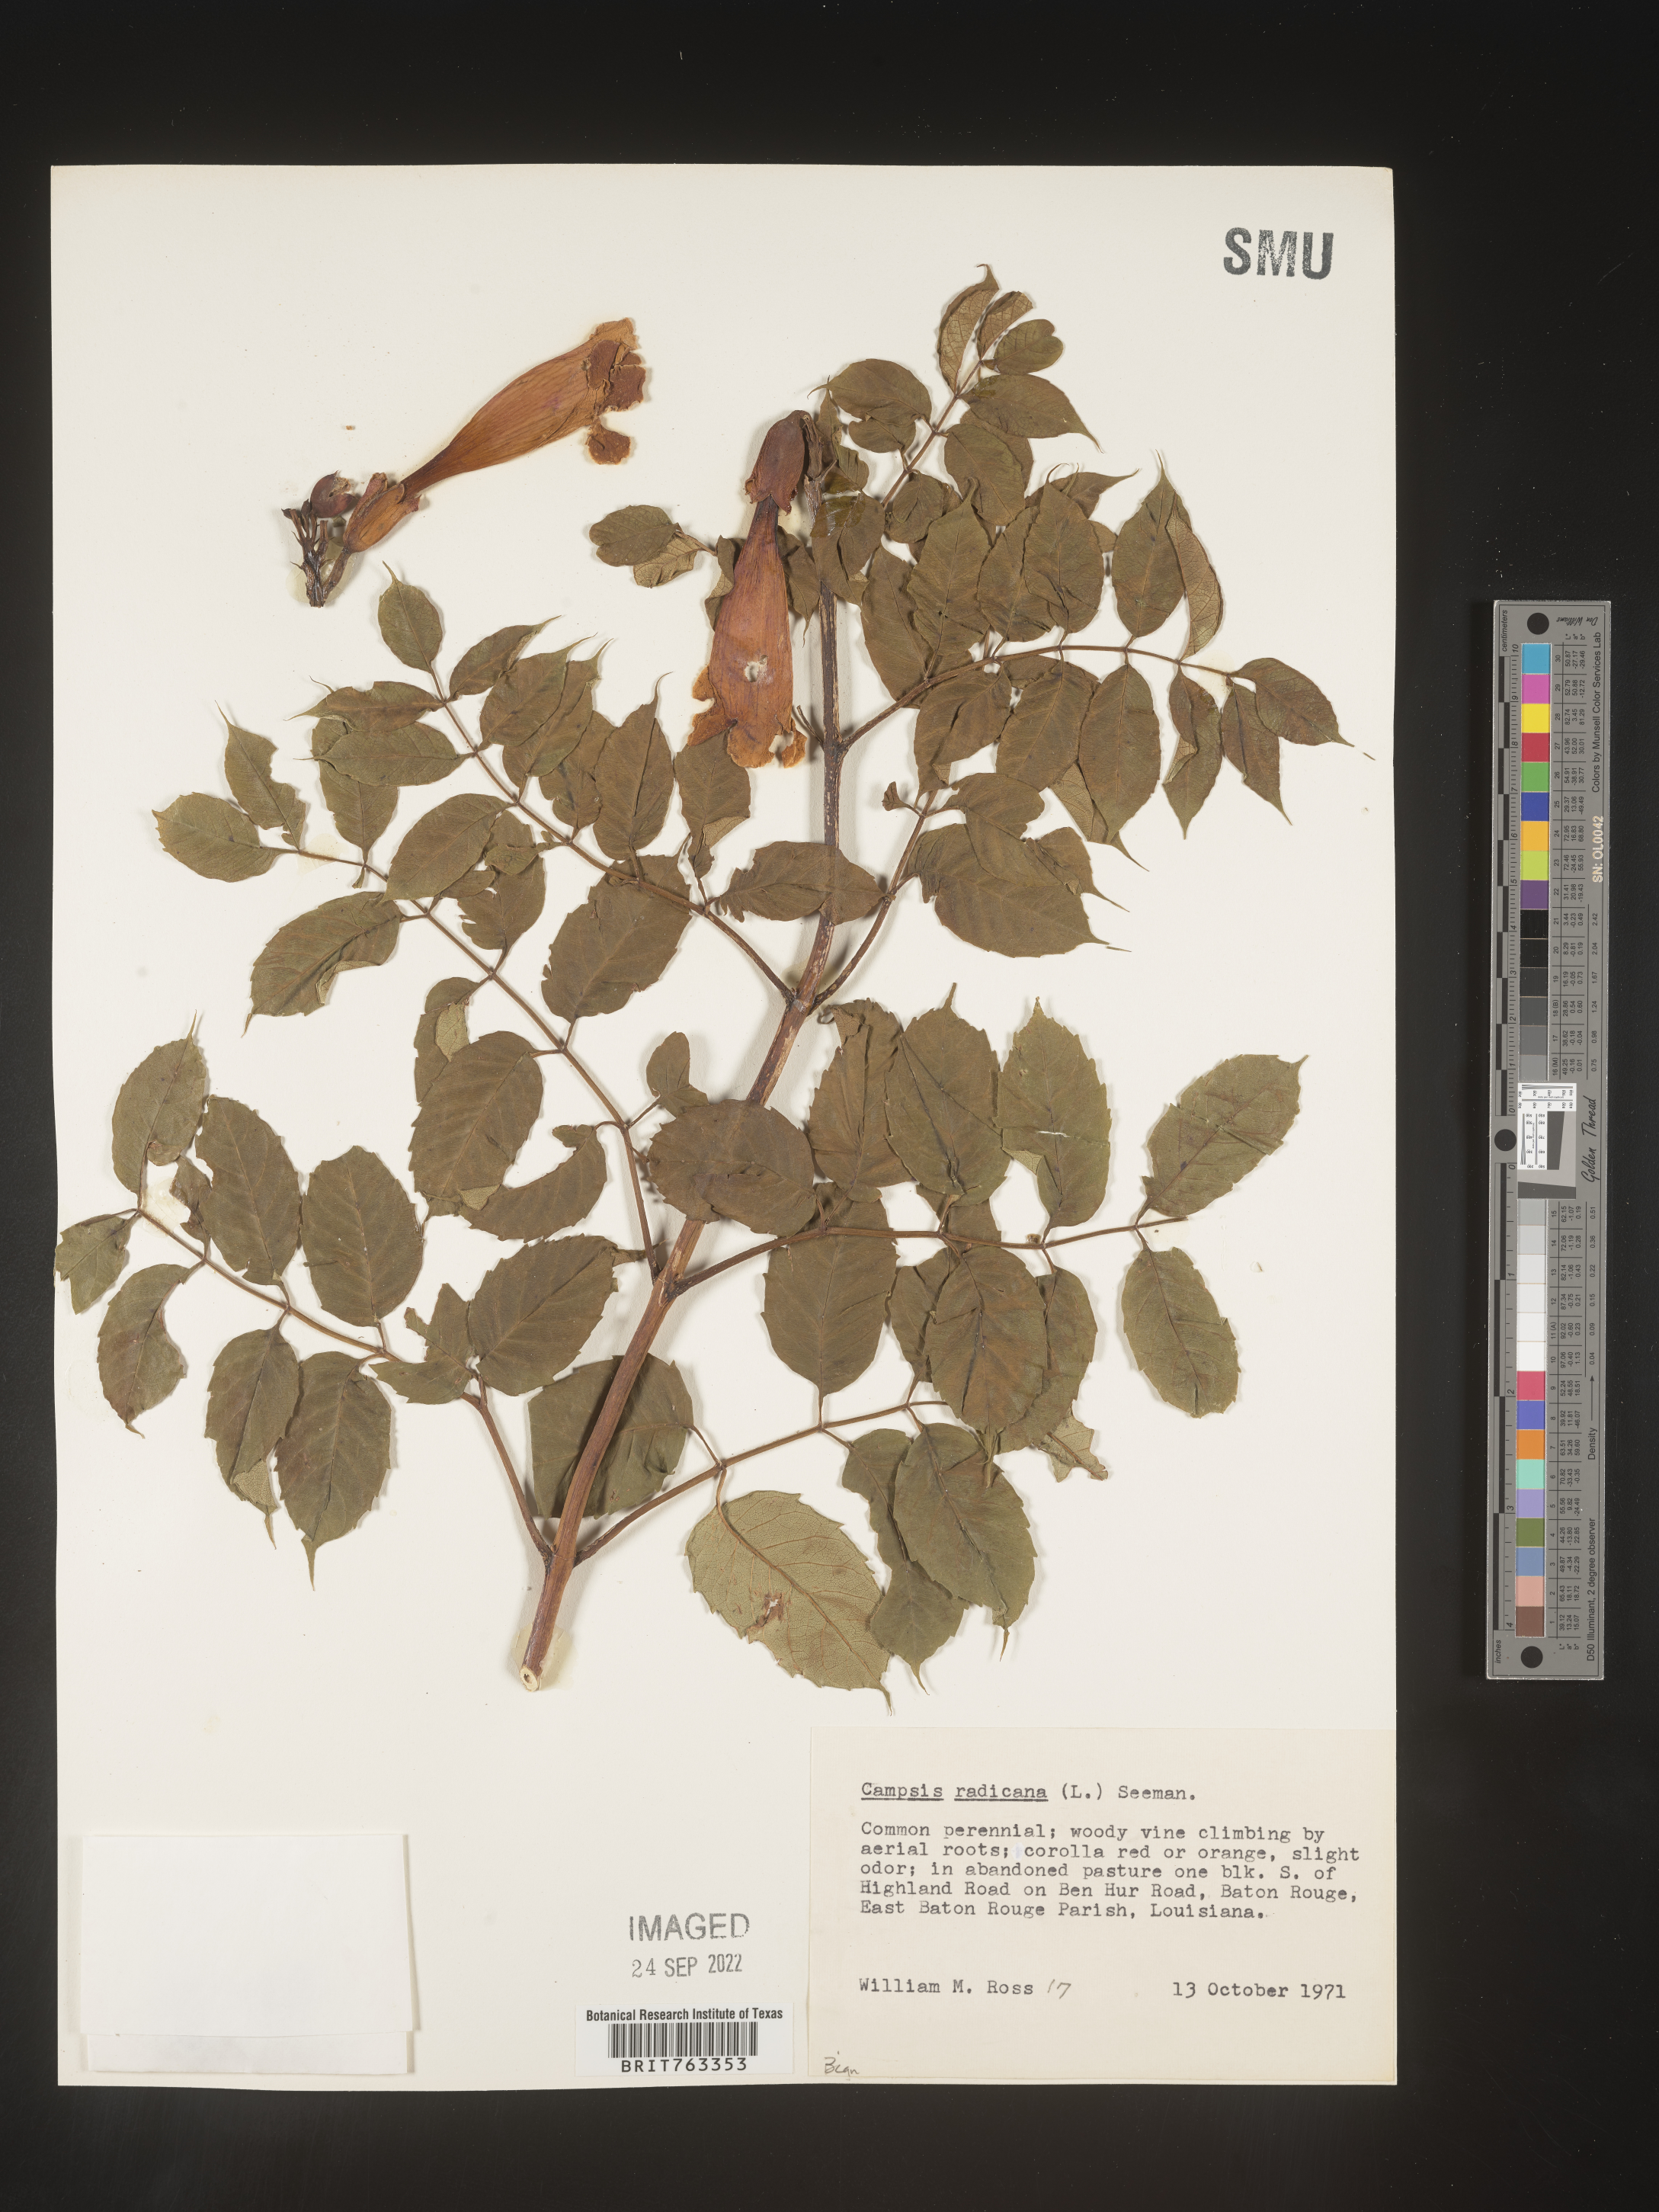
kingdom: Plantae
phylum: Tracheophyta
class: Magnoliopsida
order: Lamiales
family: Bignoniaceae
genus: Campsis
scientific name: Campsis radicans
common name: Trumpet-creeper
